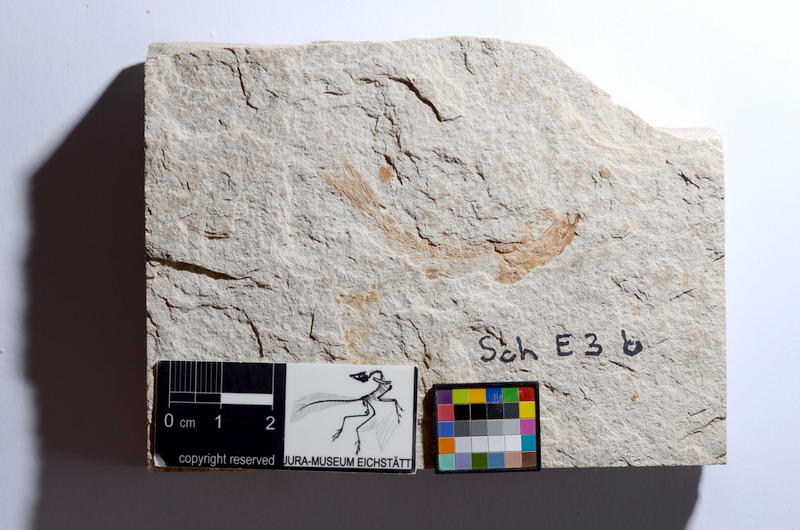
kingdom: Animalia
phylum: Chordata
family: Ascalaboidae
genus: Tharsis
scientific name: Tharsis dubius
